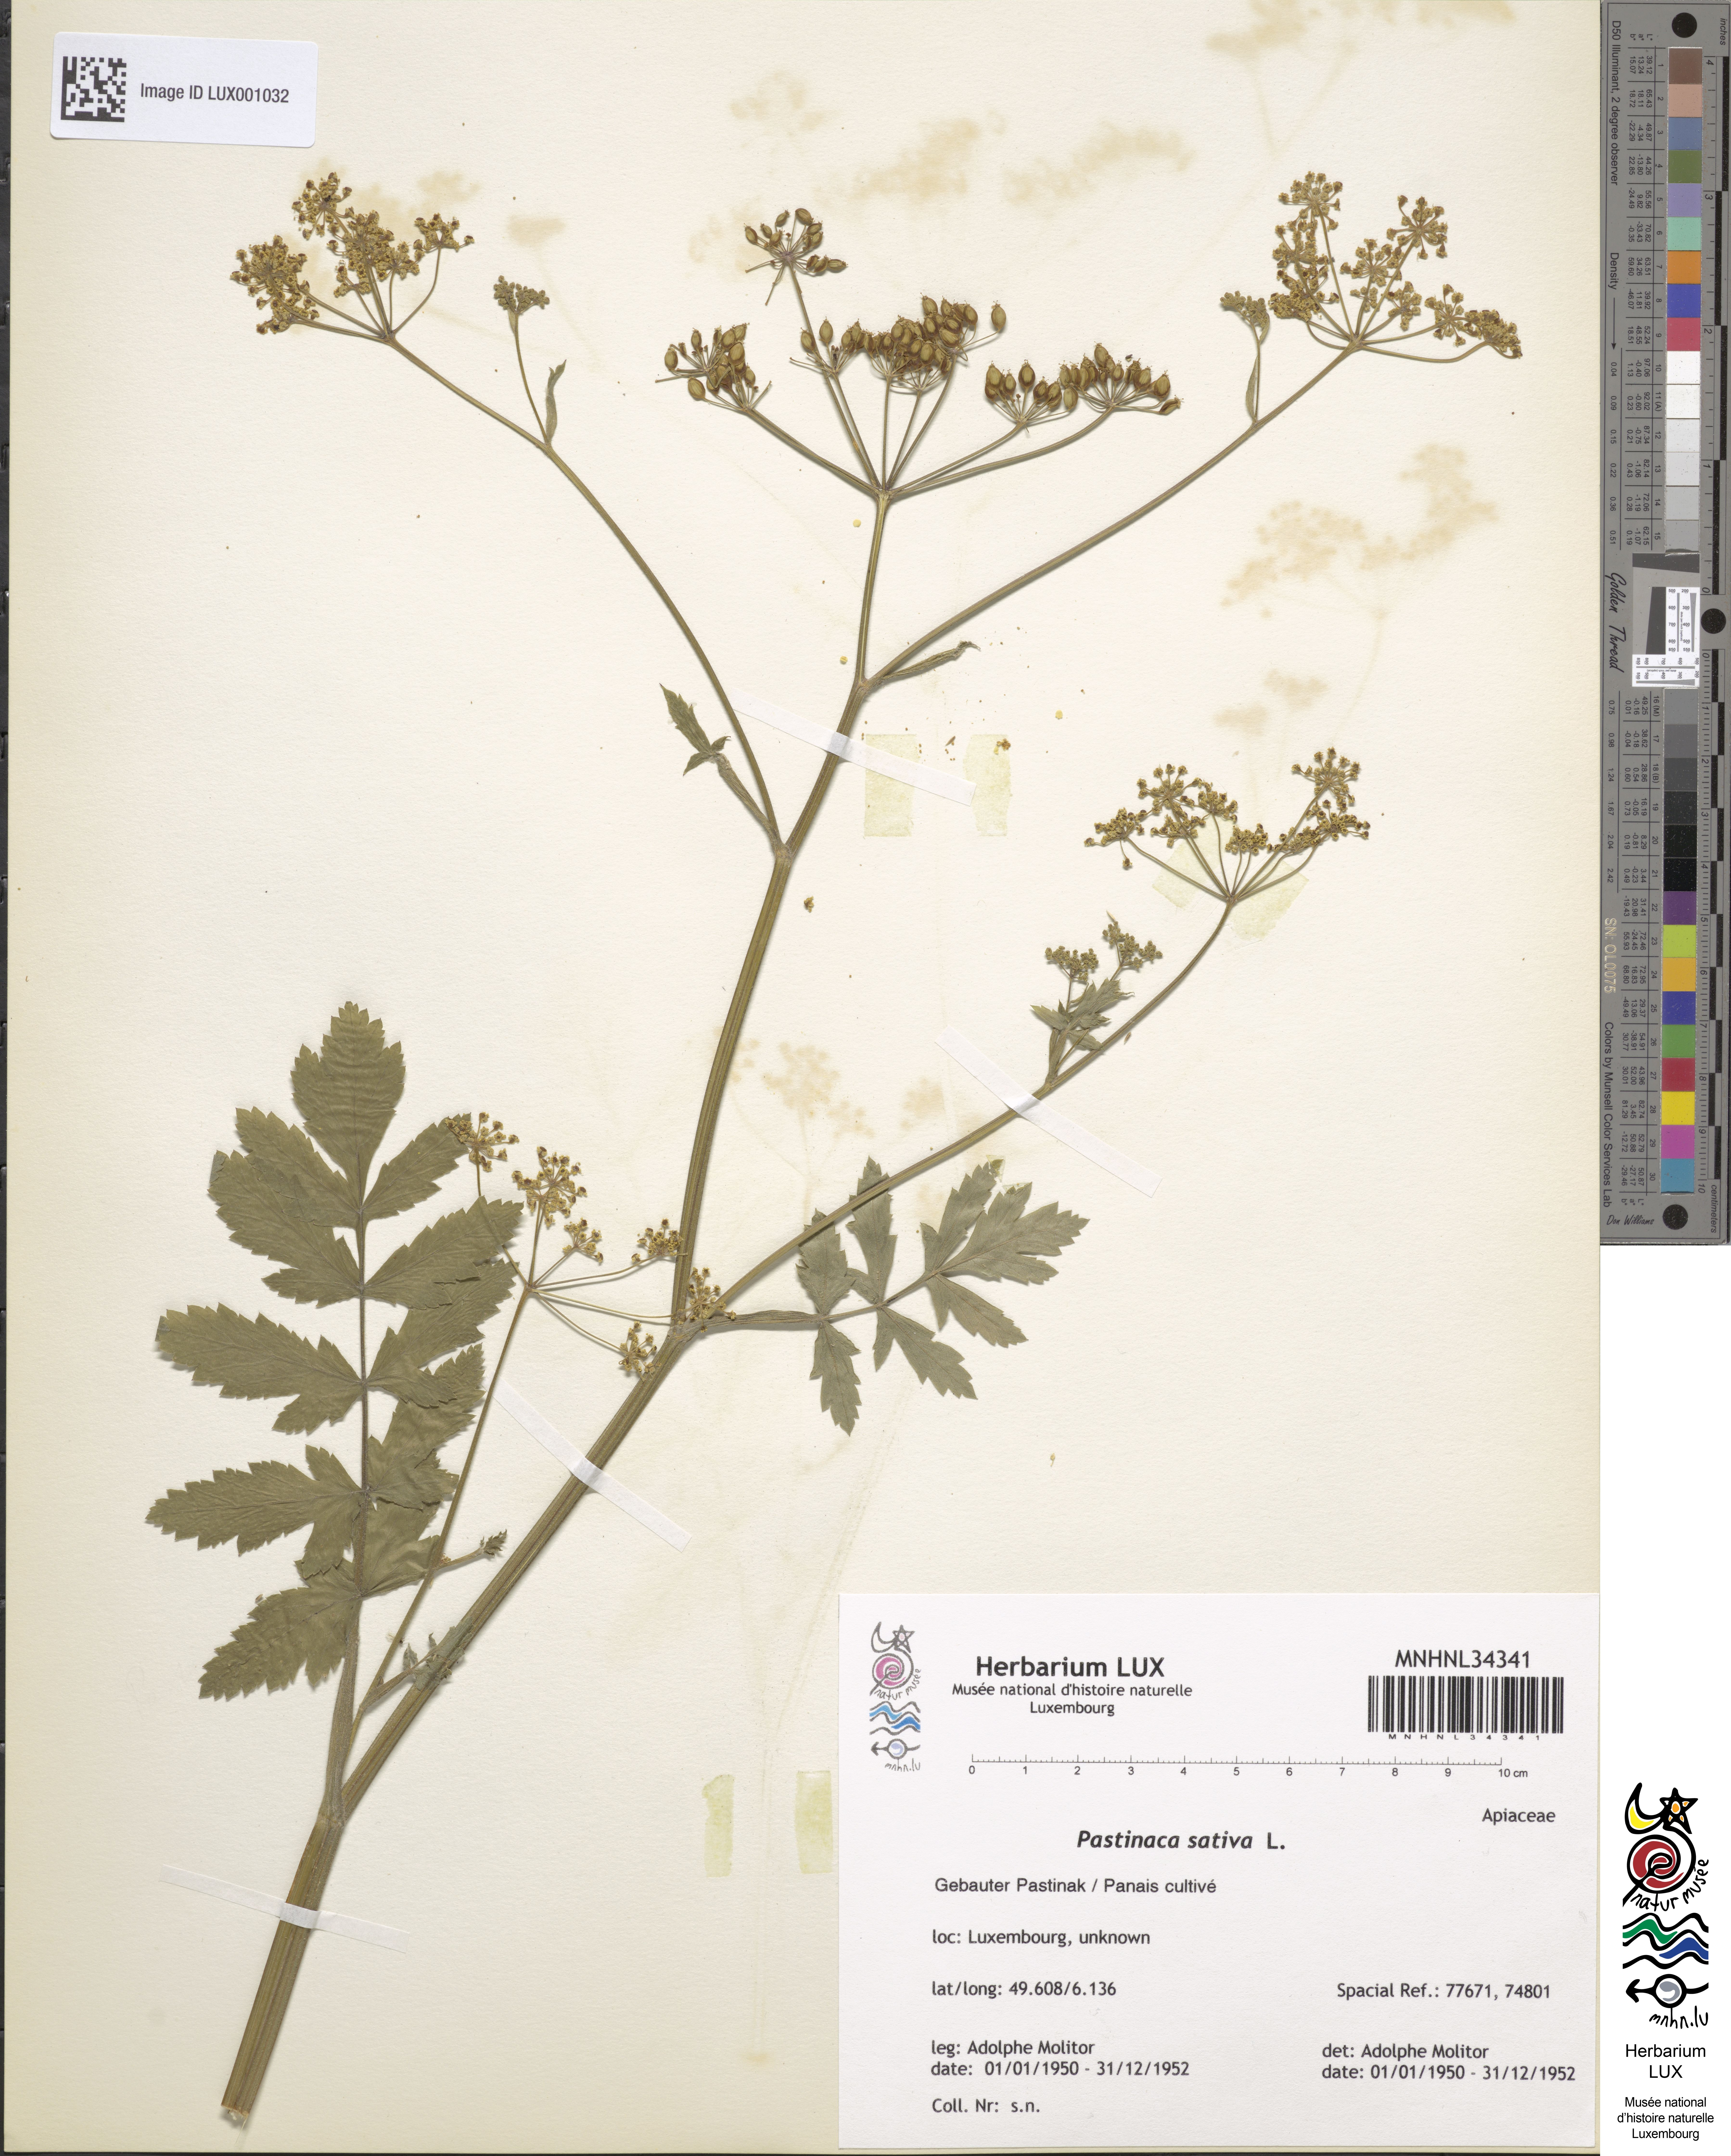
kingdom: Plantae
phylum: Tracheophyta
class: Magnoliopsida
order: Apiales
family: Apiaceae
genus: Pastinaca
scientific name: Pastinaca sativa
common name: Wild parsnip
